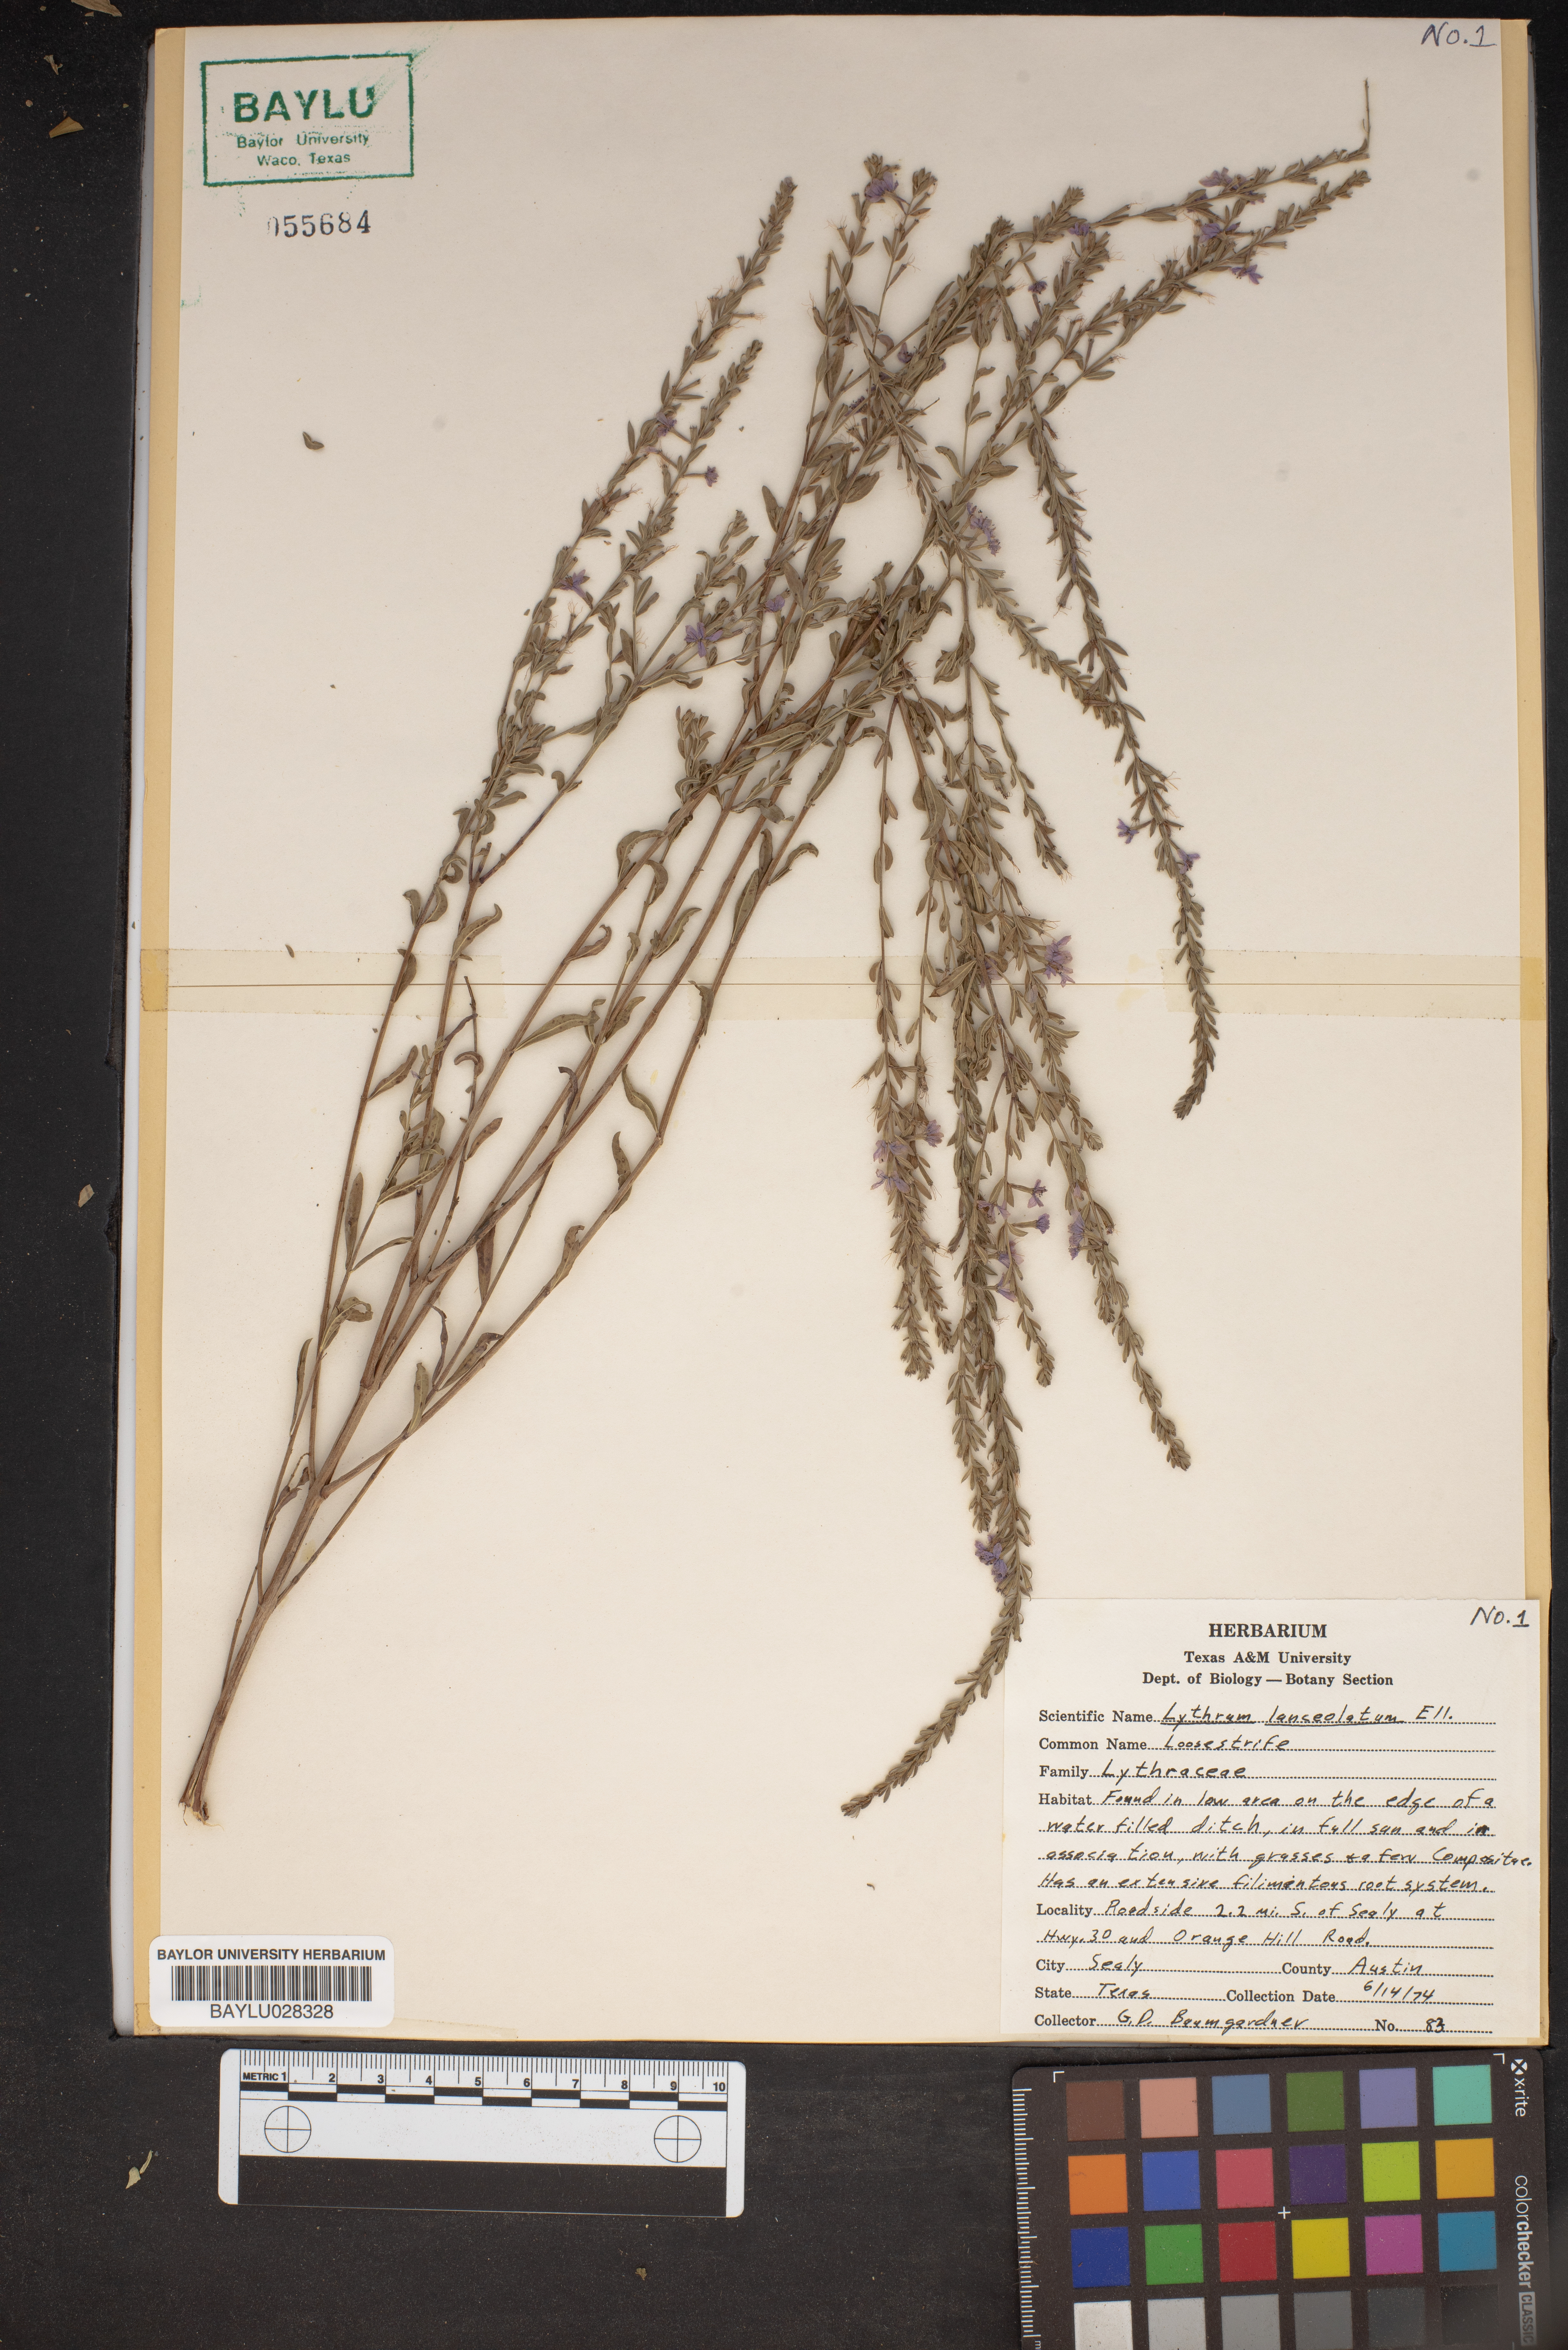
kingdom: Plantae
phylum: Tracheophyta
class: Magnoliopsida
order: Myrtales
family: Lythraceae
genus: Lythrum
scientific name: Lythrum alatum
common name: Winged loosestrife
